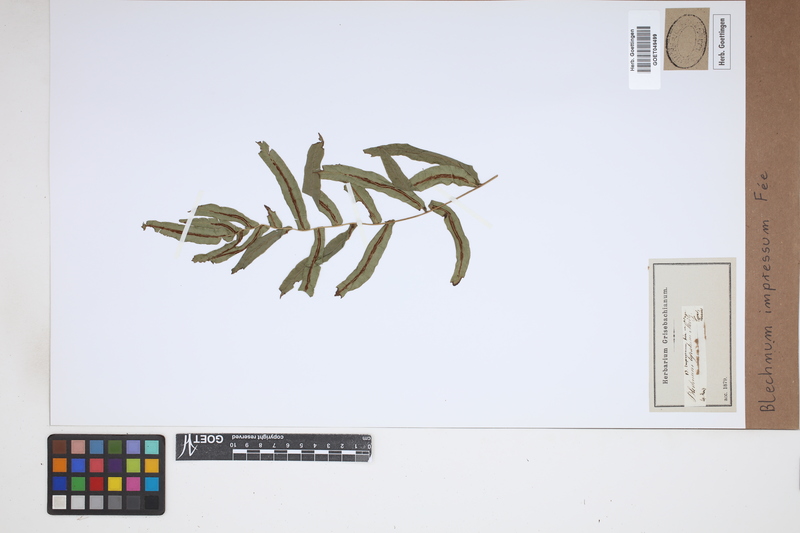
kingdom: Plantae
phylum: Tracheophyta
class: Polypodiopsida
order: Polypodiales
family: Blechnaceae
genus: Blechnum
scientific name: Blechnum impressum
